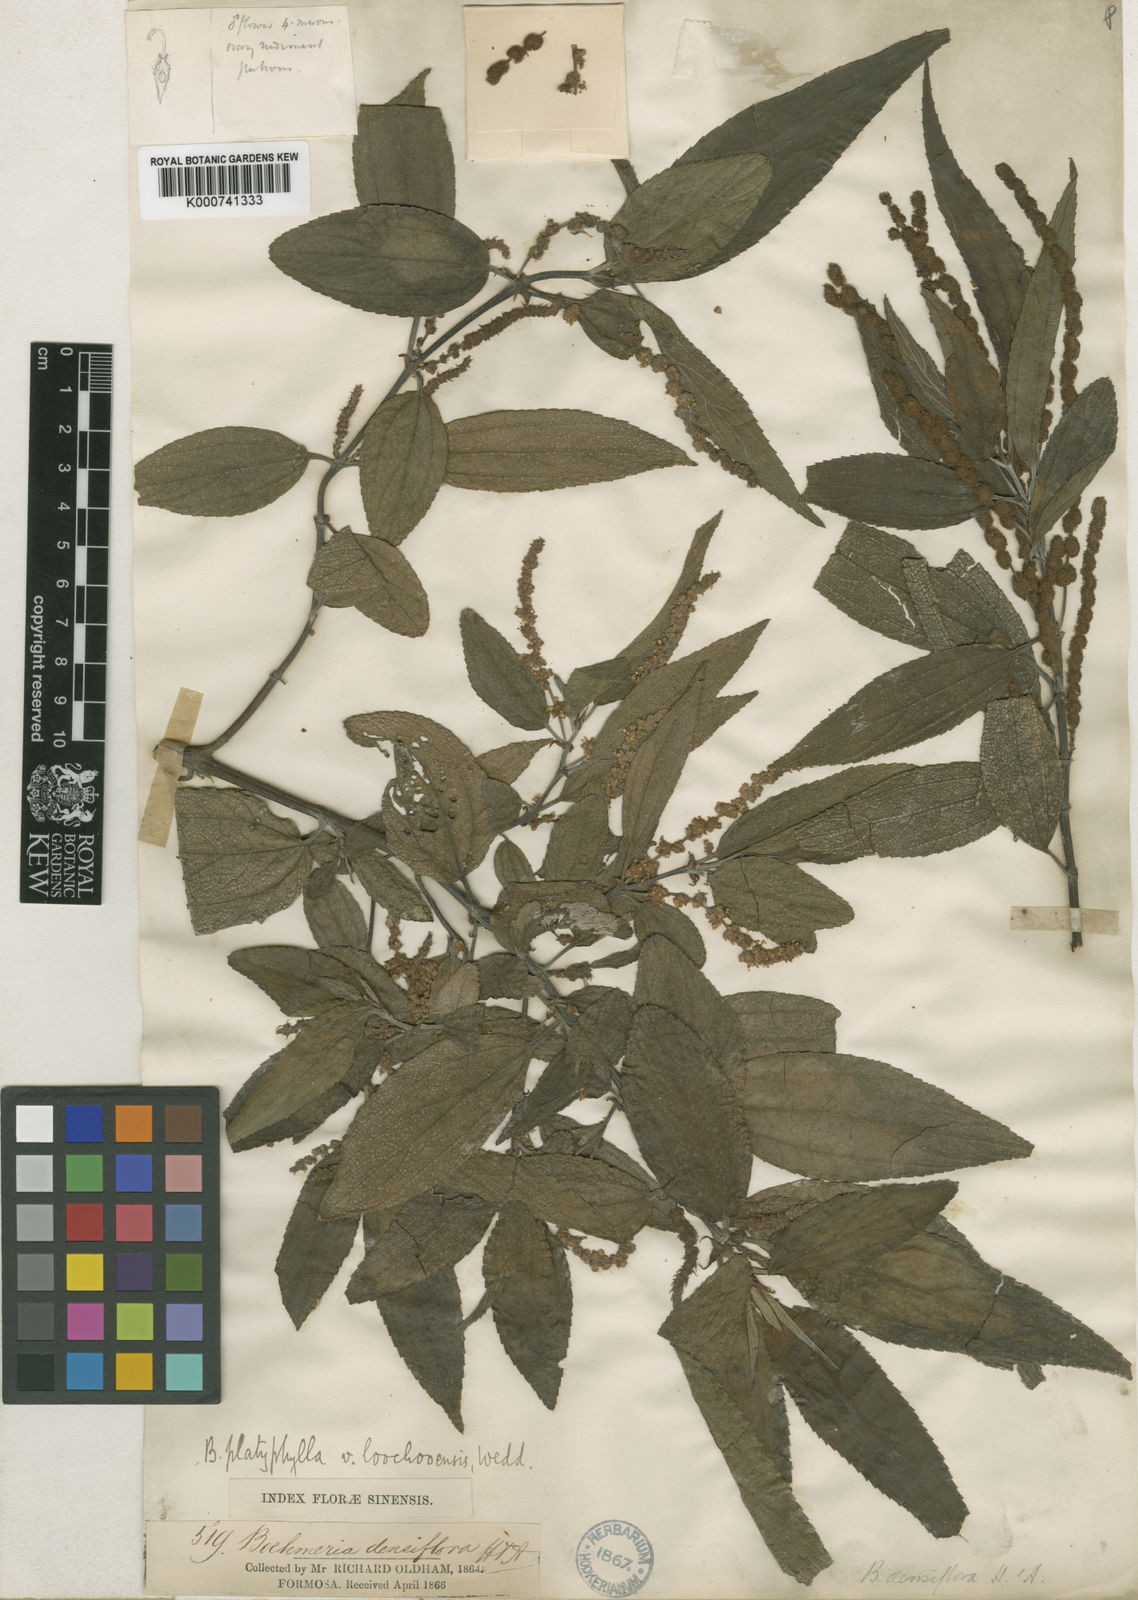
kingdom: Plantae
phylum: Tracheophyta
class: Magnoliopsida
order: Rosales
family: Urticaceae
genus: Boehmeria
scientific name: Boehmeria densiflora
